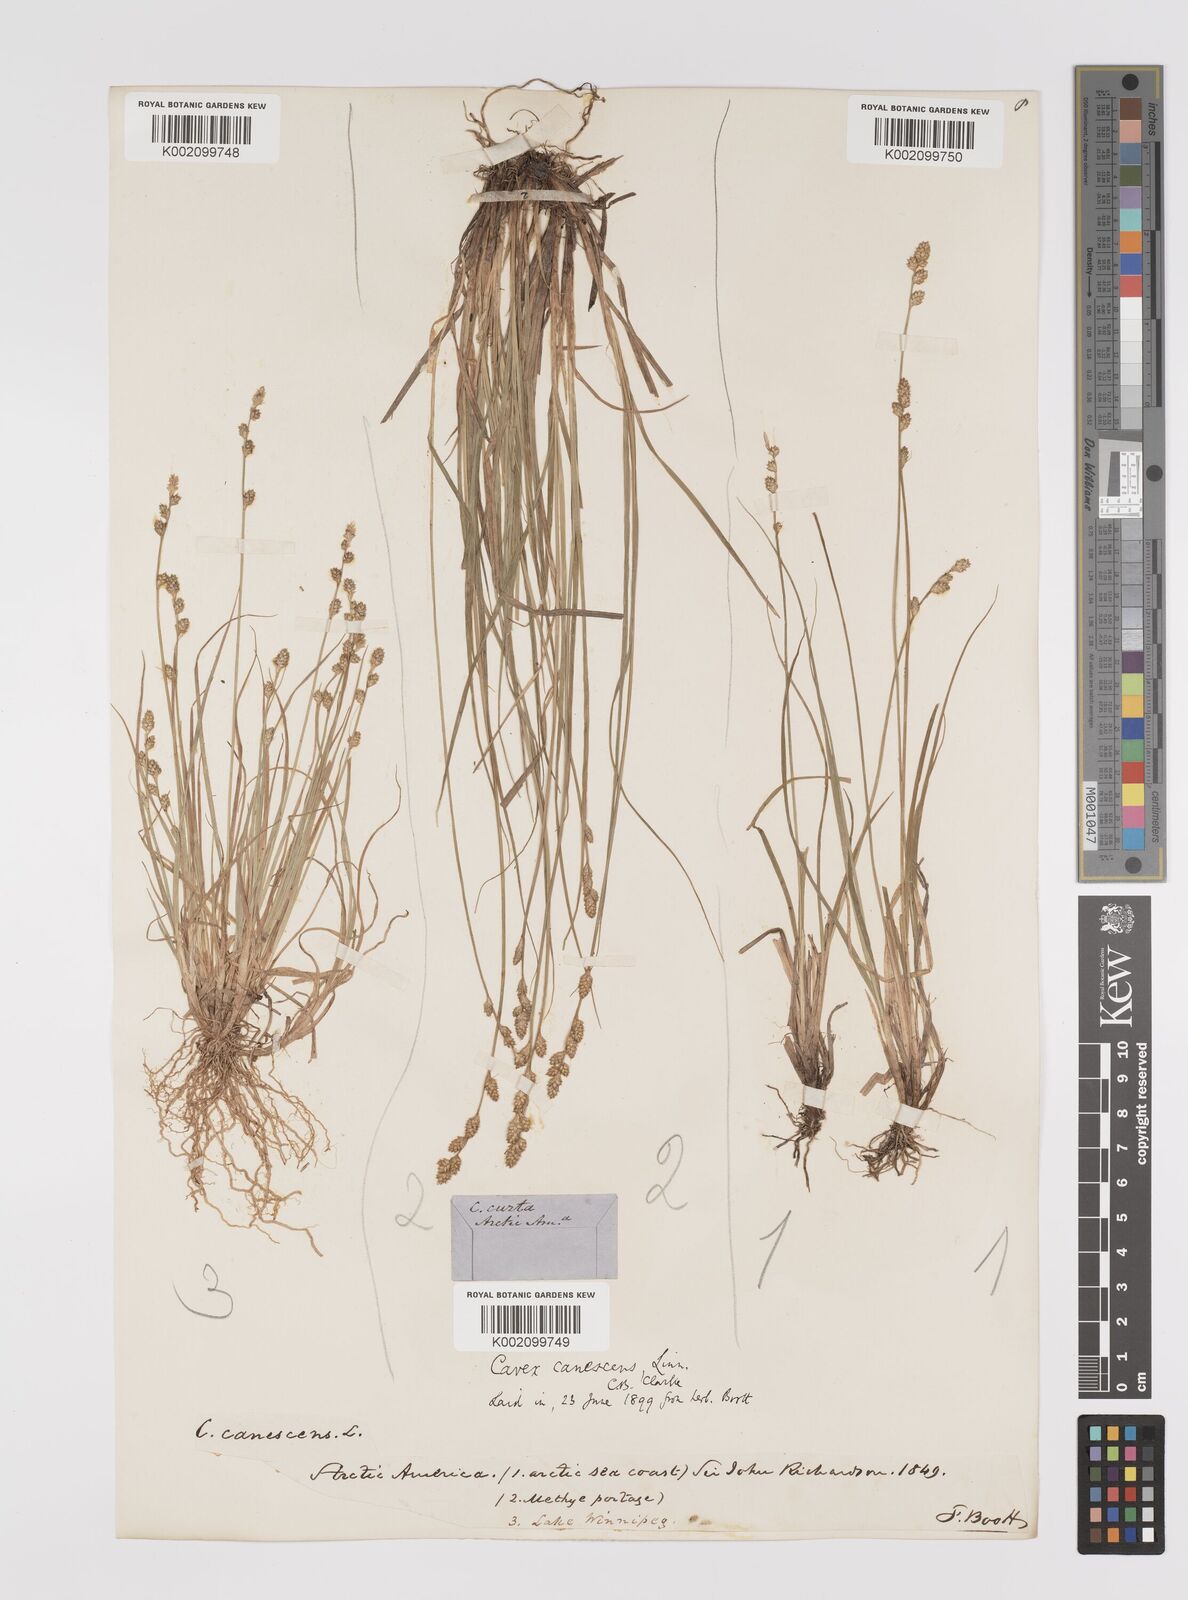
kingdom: Plantae
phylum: Tracheophyta
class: Liliopsida
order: Poales
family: Cyperaceae
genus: Carex
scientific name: Carex curta
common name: White sedge
